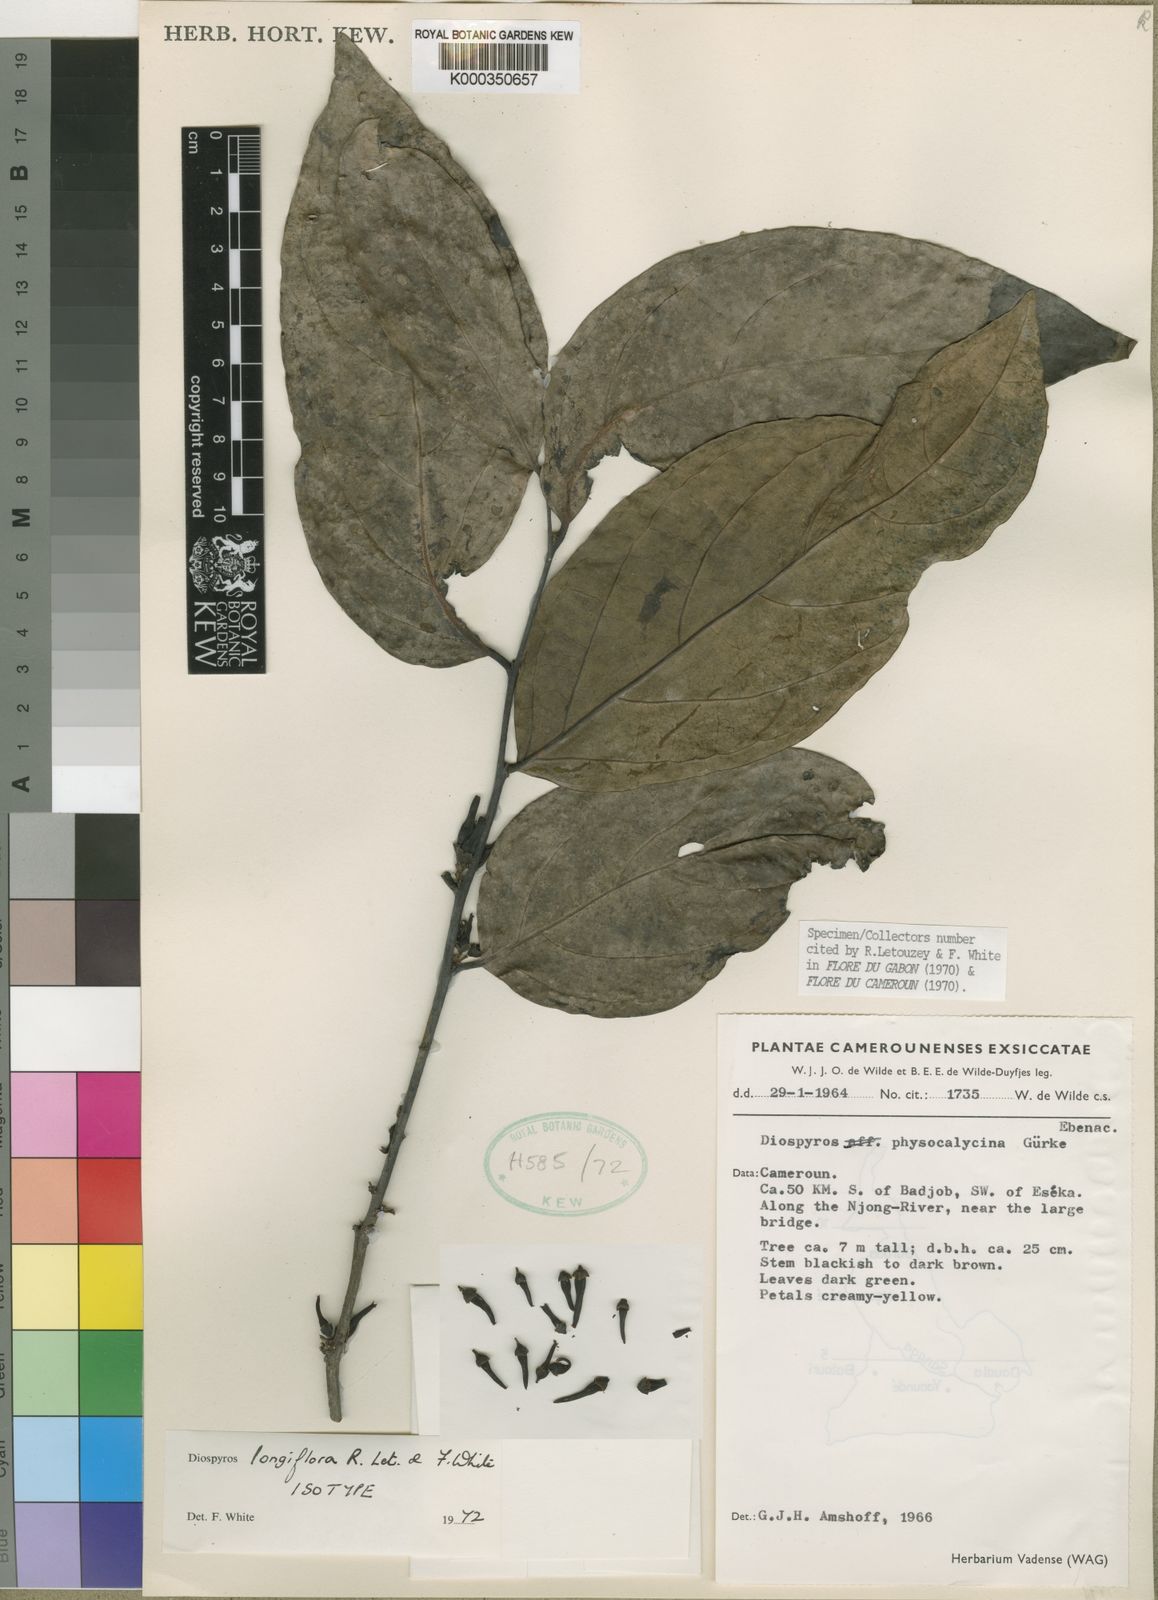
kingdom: Plantae
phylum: Tracheophyta
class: Magnoliopsida
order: Ericales
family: Ebenaceae
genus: Diospyros
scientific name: Diospyros mannii
